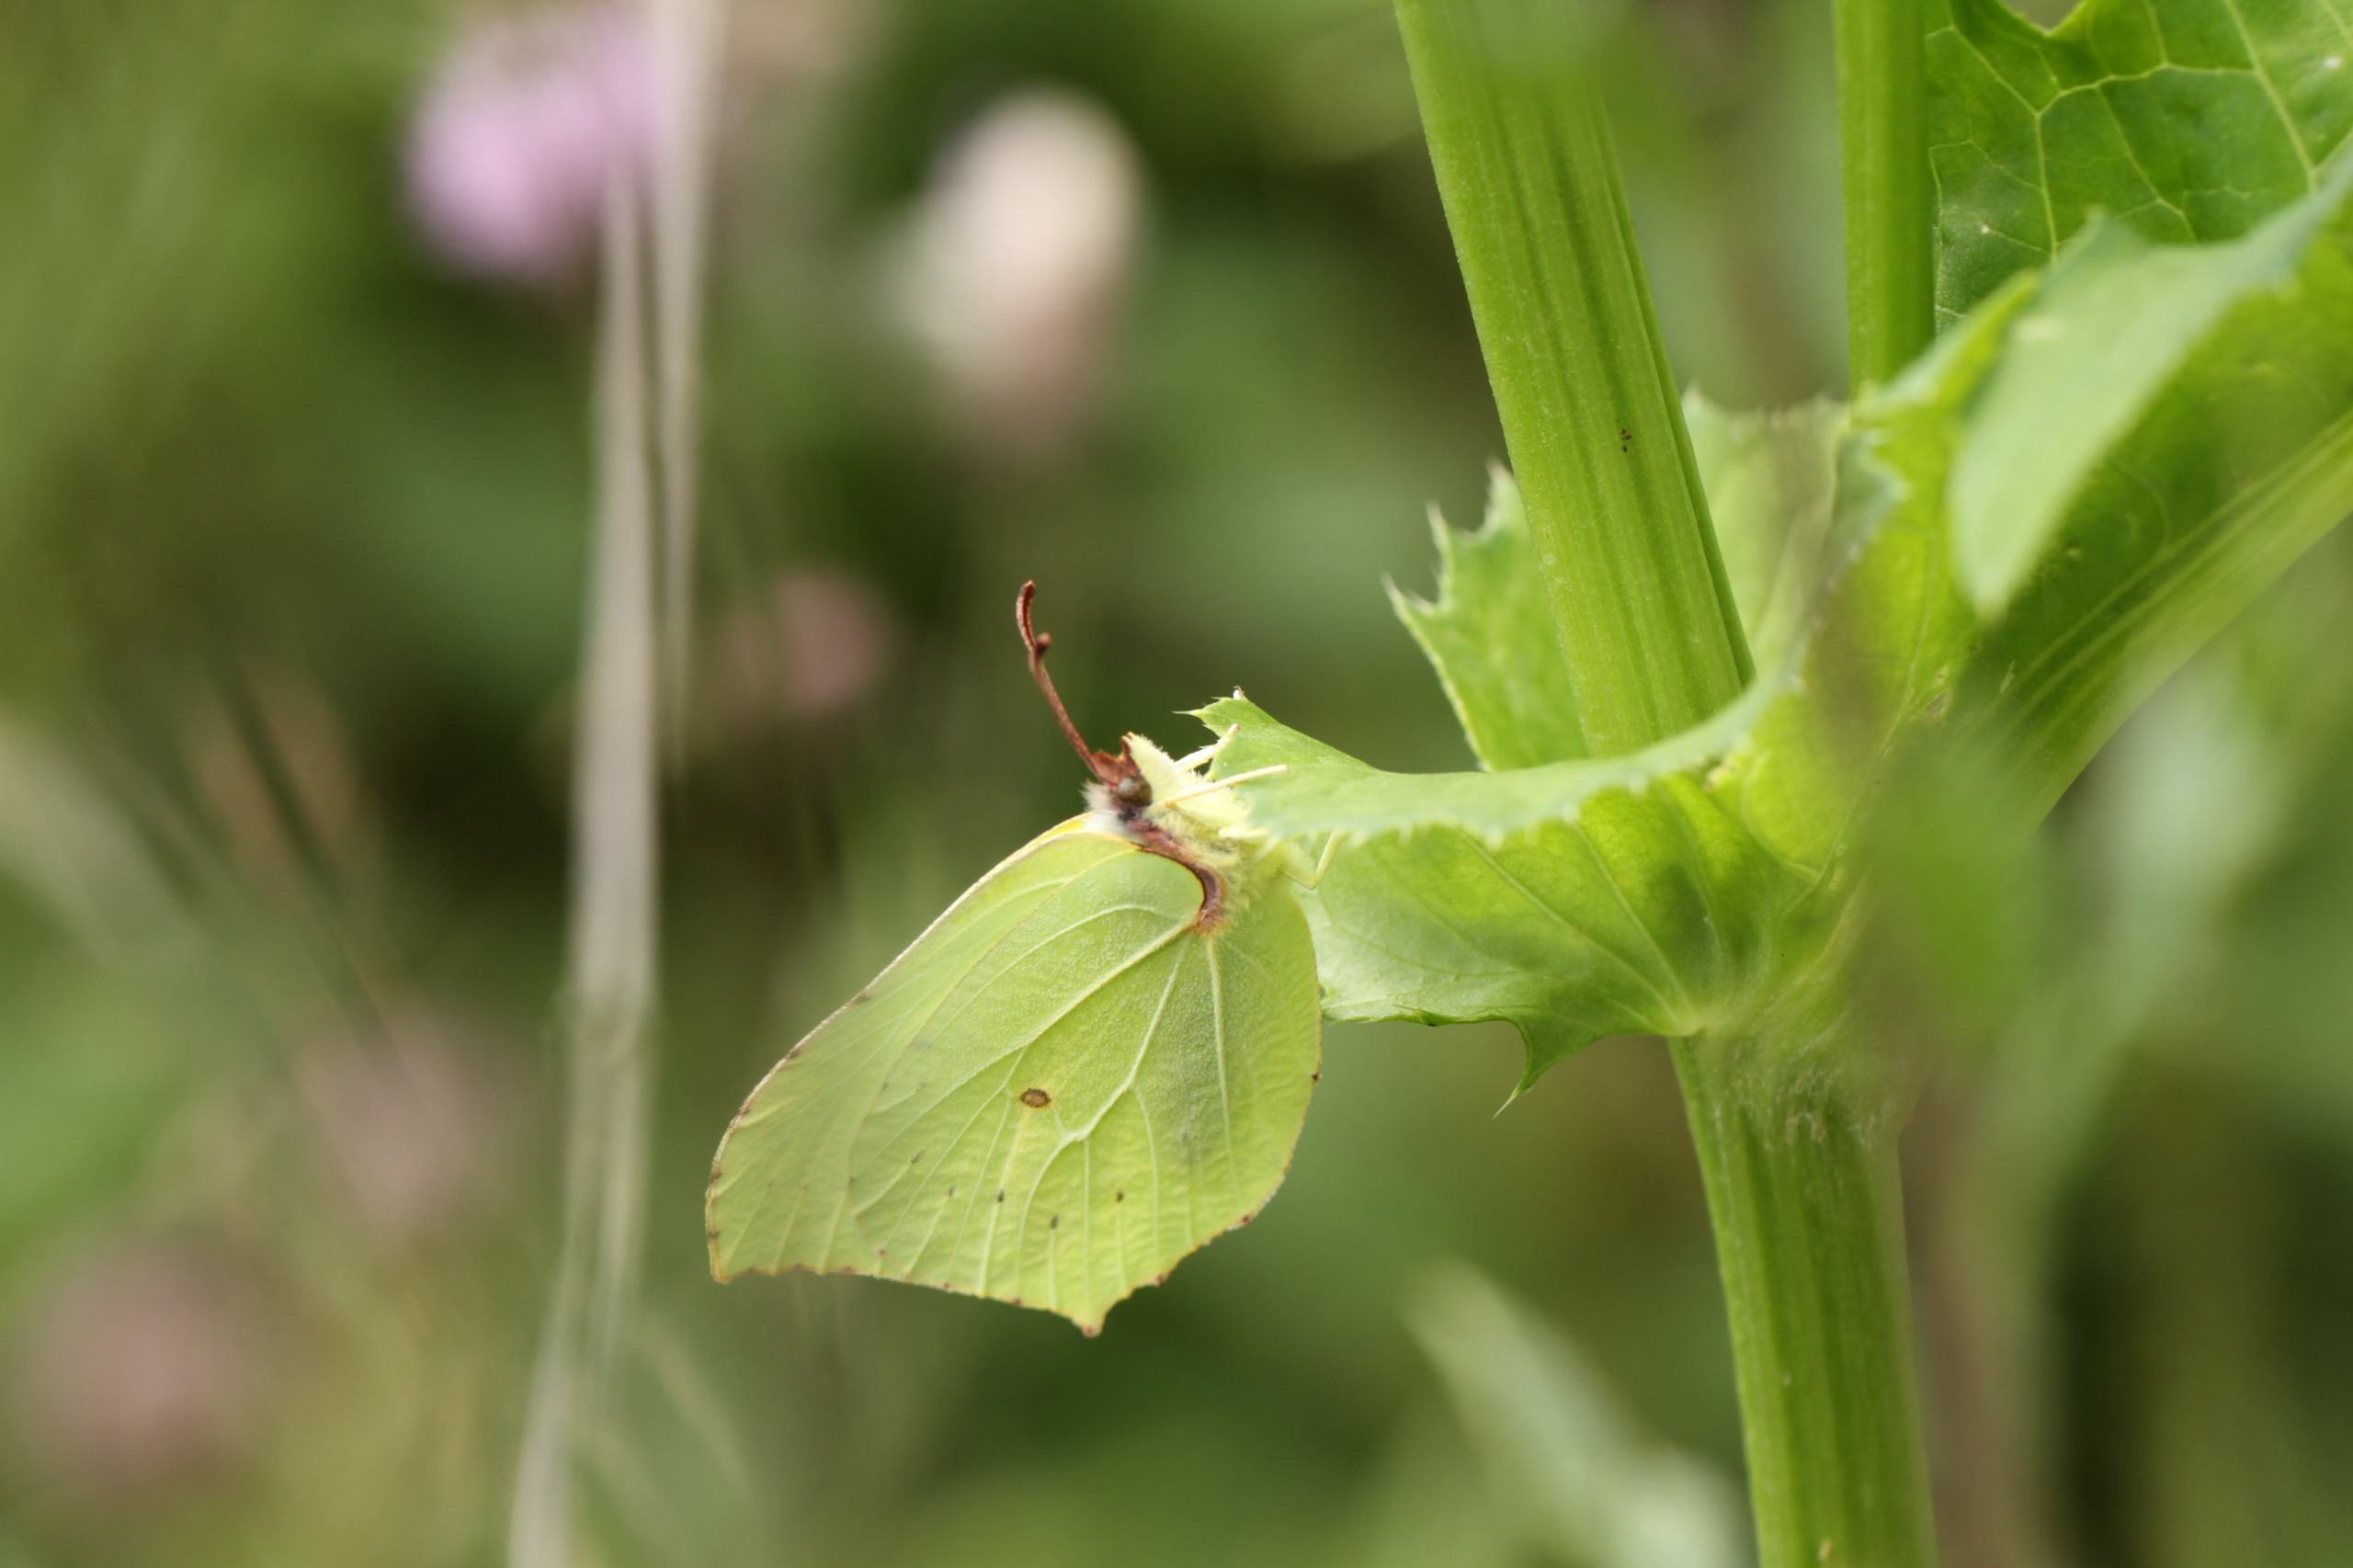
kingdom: Animalia
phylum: Arthropoda
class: Insecta
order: Lepidoptera
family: Pieridae
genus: Gonepteryx
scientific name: Gonepteryx rhamni
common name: Citronsommerfugl
